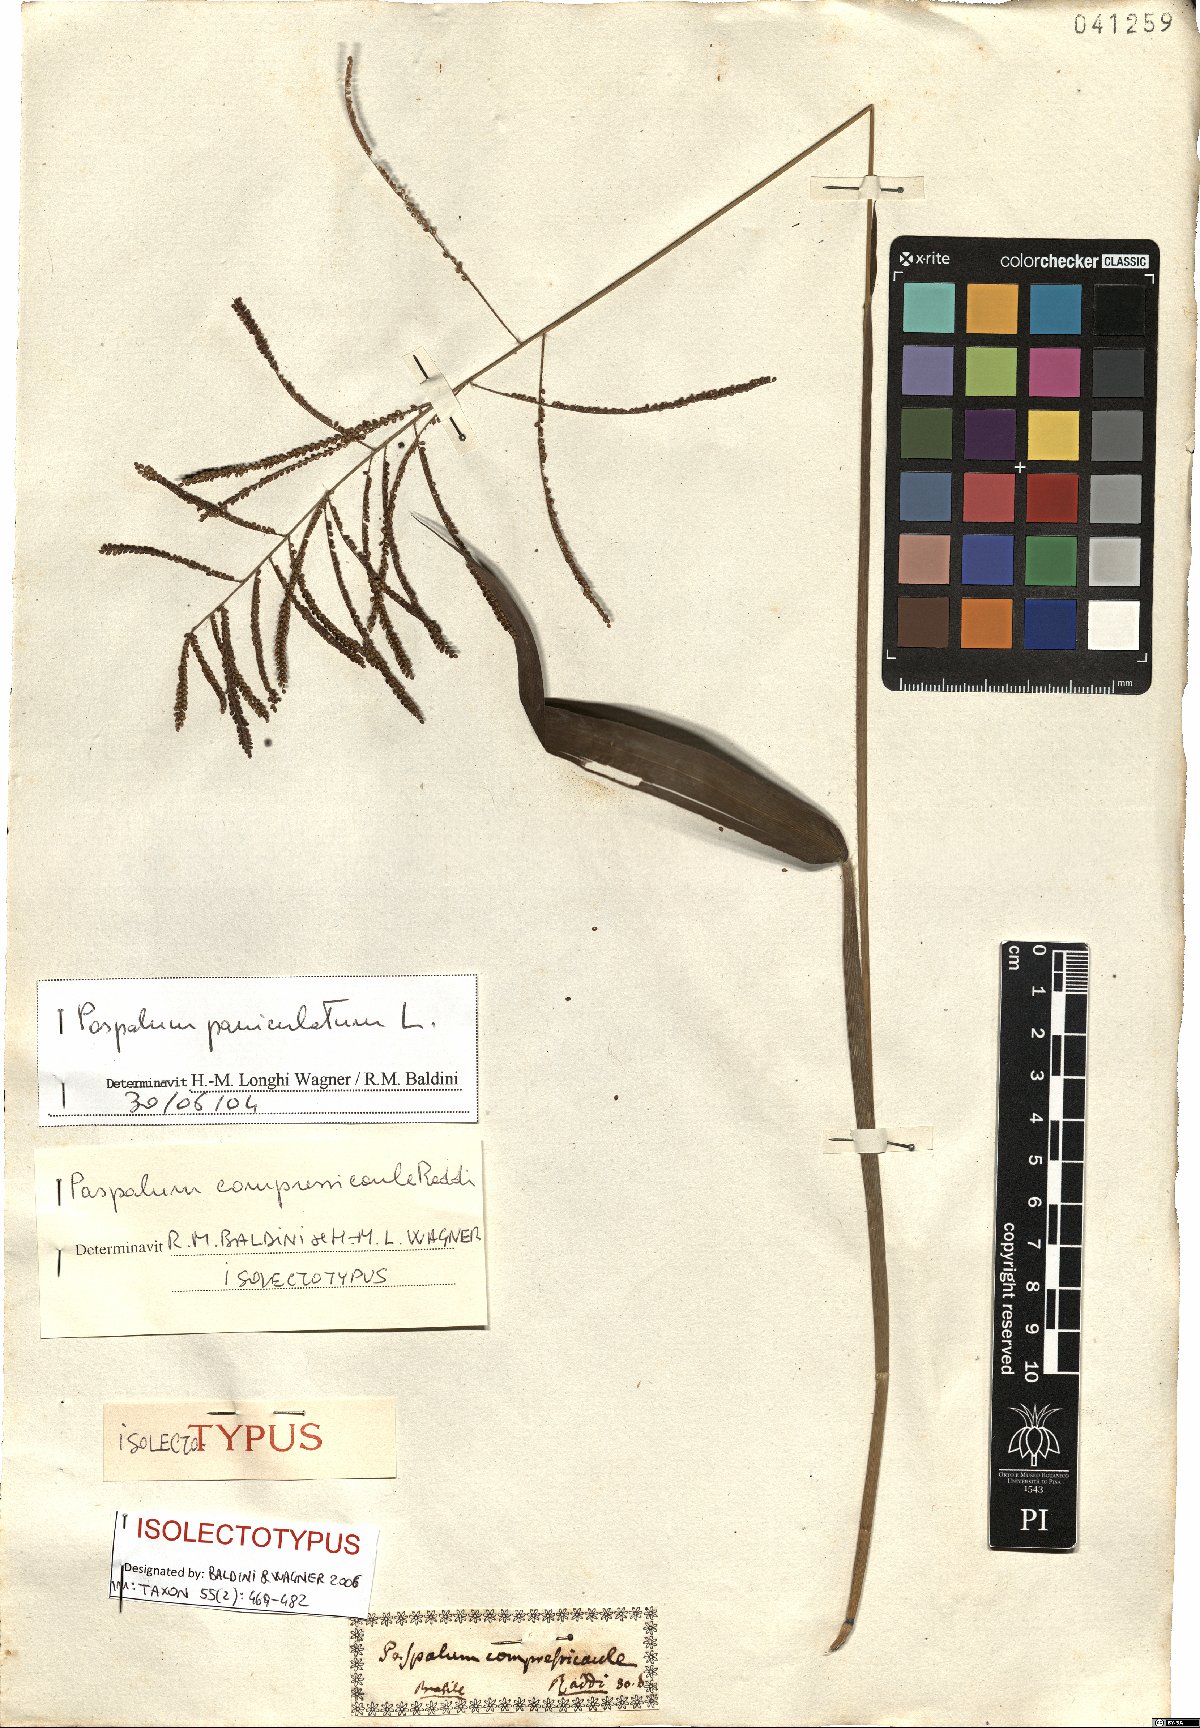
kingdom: Plantae
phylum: Tracheophyta
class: Liliopsida
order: Poales
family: Poaceae
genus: Paspalum
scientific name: Paspalum paniculatum
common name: Arrocillo
